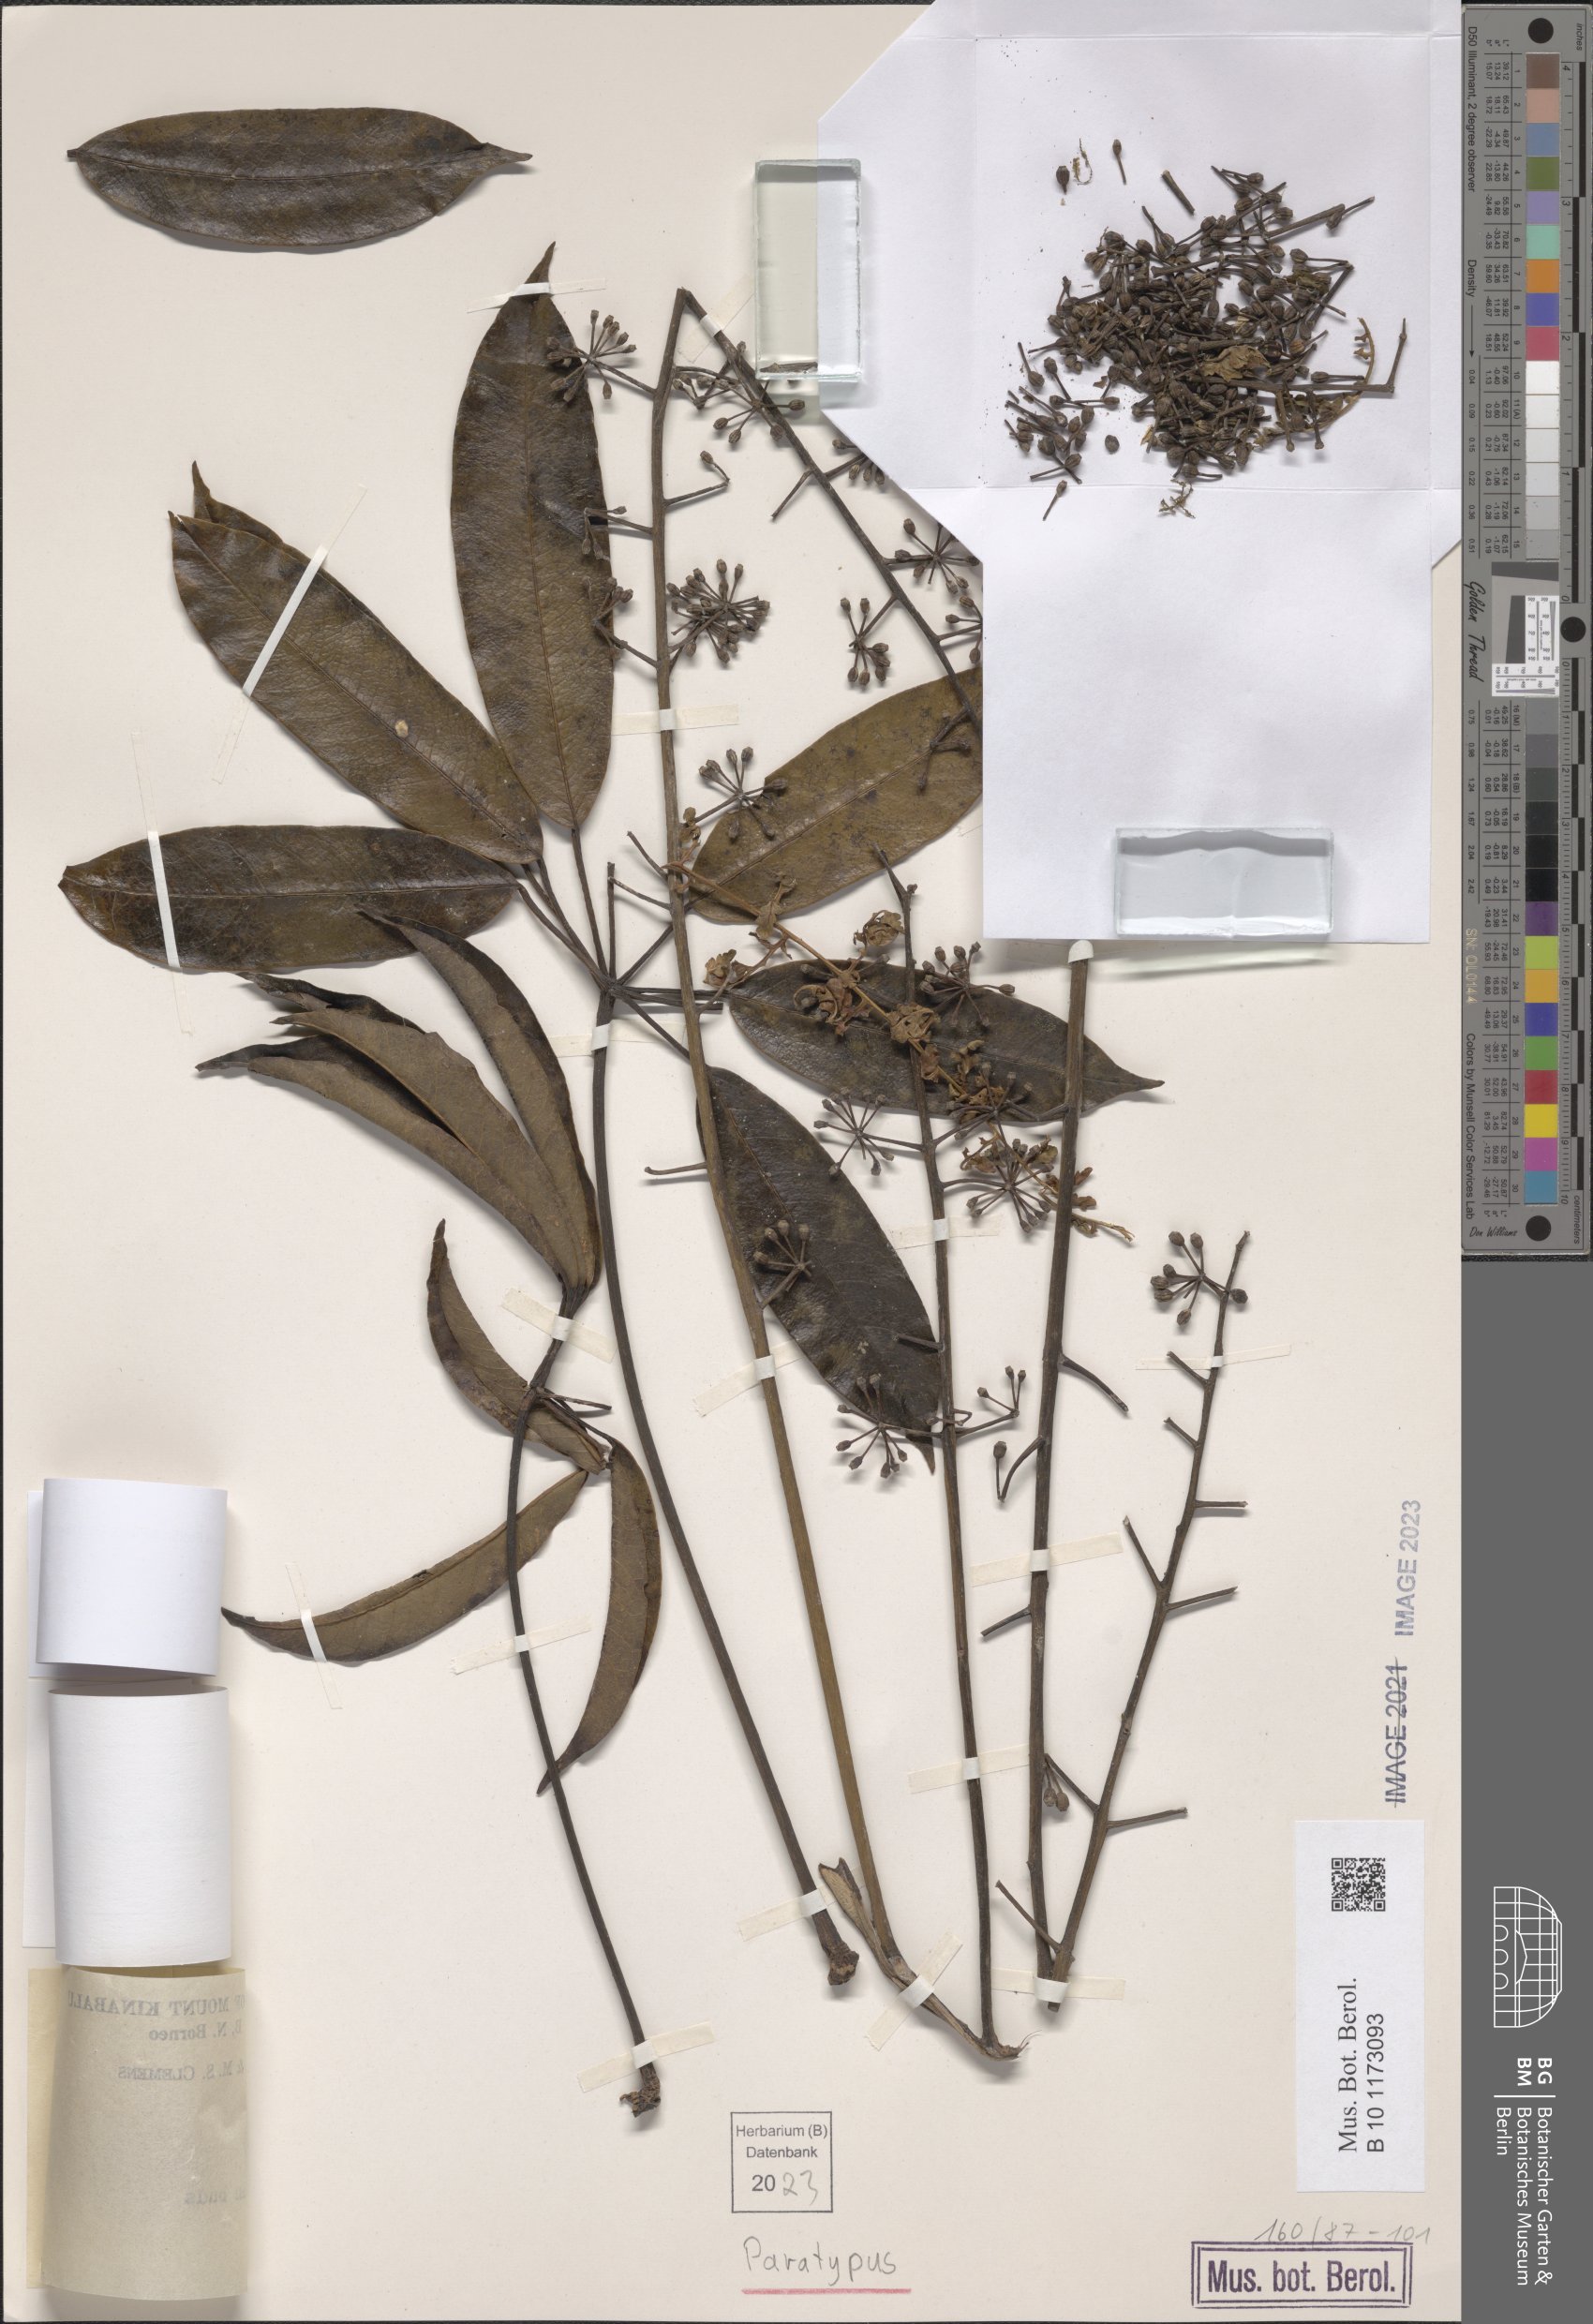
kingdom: Plantae
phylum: Tracheophyta
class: Magnoliopsida
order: Apiales
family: Araliaceae
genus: Heptapleurum
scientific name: Heptapleurum lineamentorum
